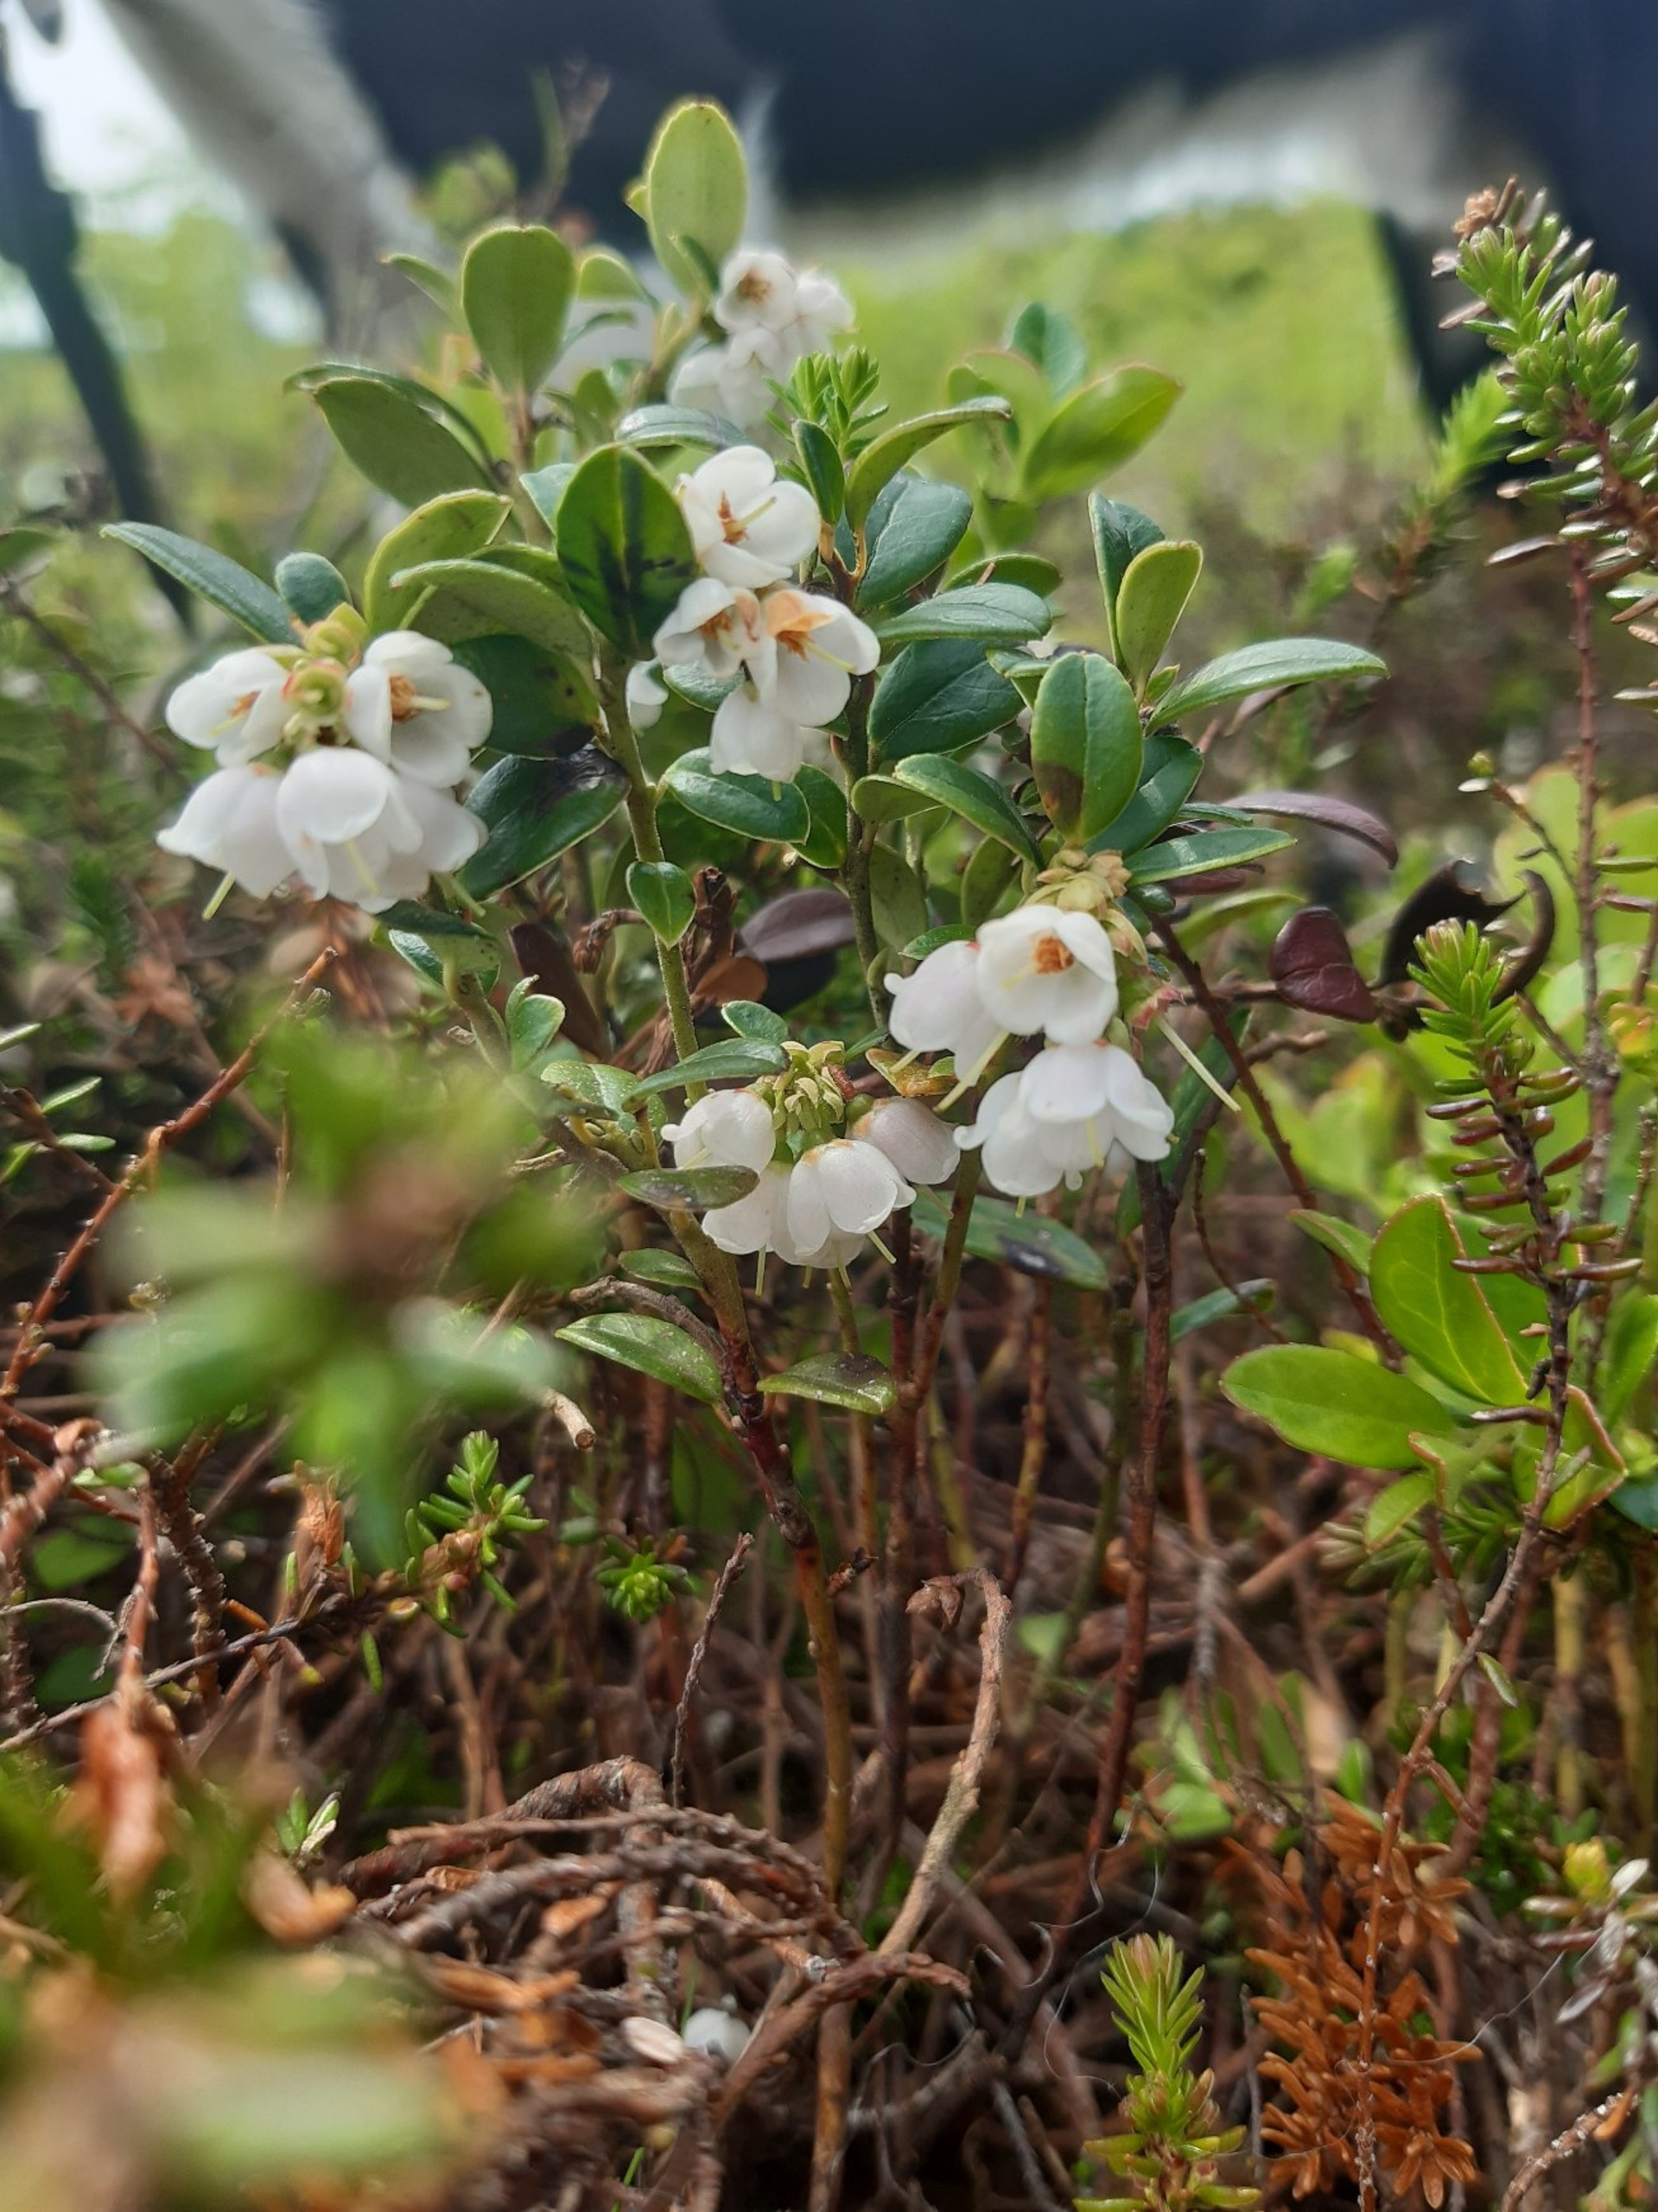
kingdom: Plantae
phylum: Tracheophyta
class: Magnoliopsida
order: Ericales
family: Ericaceae
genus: Vaccinium
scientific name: Vaccinium vitis-idaea
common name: Tyttebær
